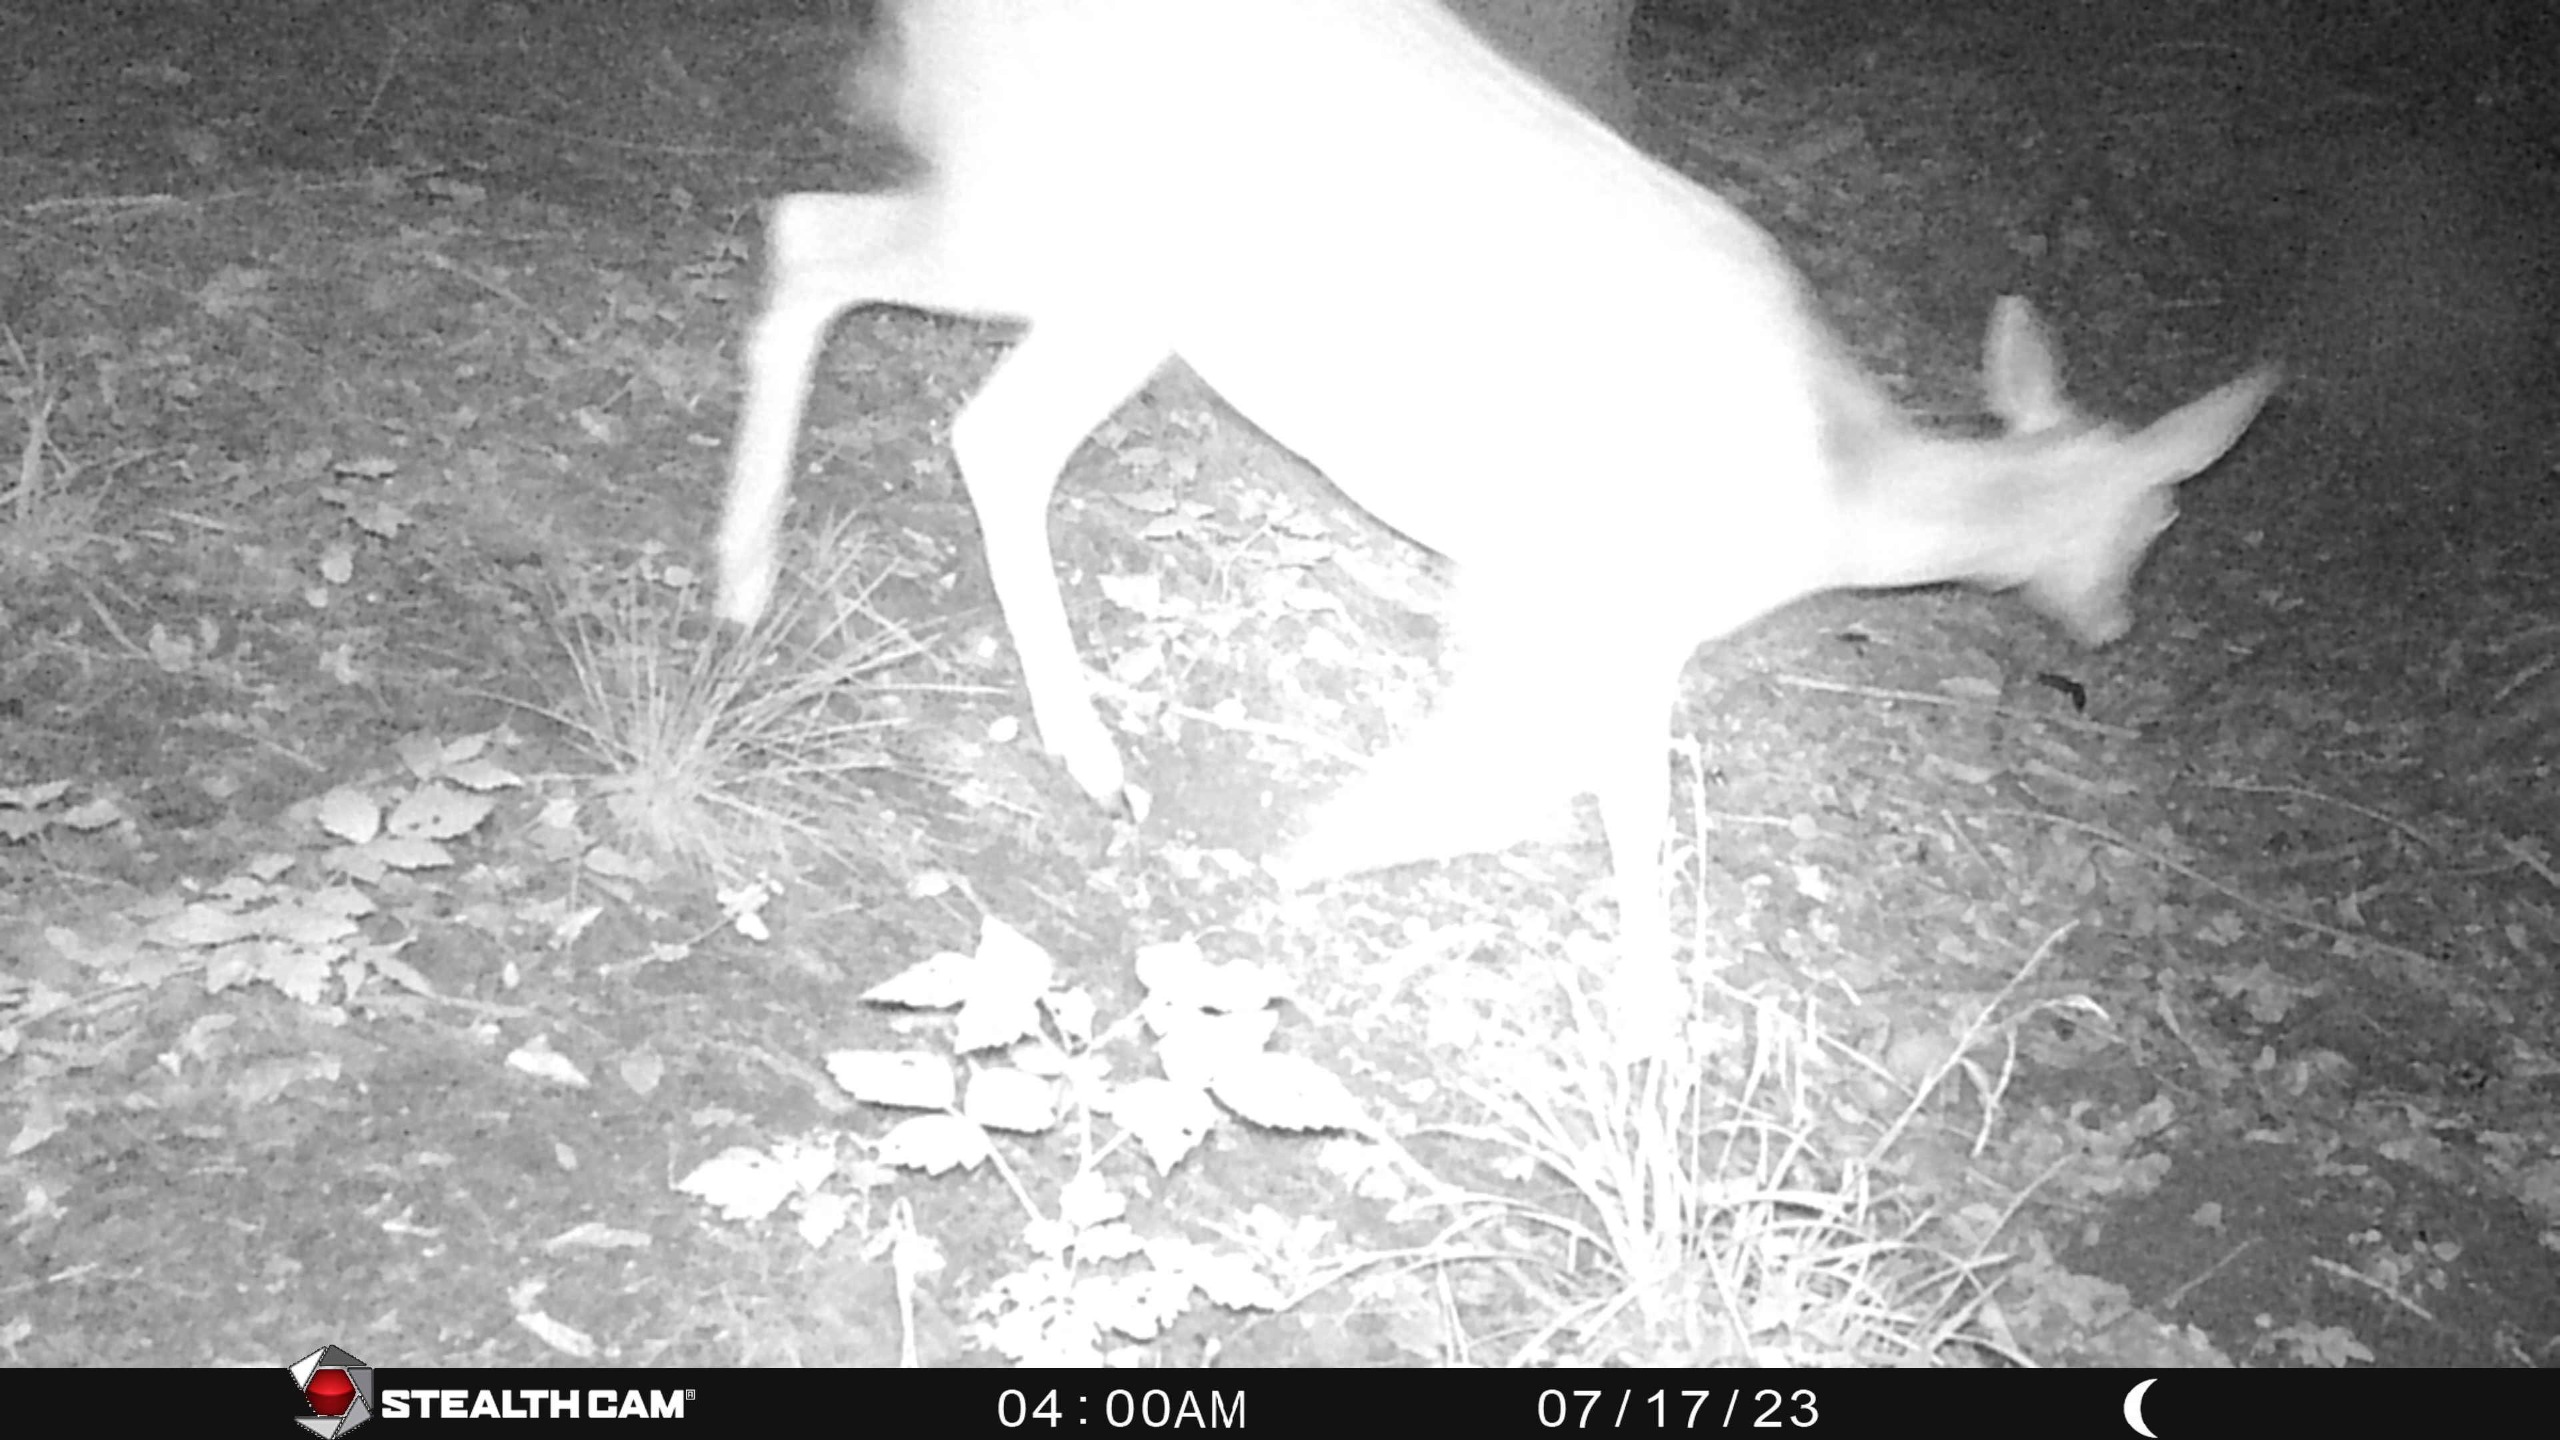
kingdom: Animalia
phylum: Chordata
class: Mammalia
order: Artiodactyla
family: Cervidae
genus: Dama
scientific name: Dama dama
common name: Dådyr
